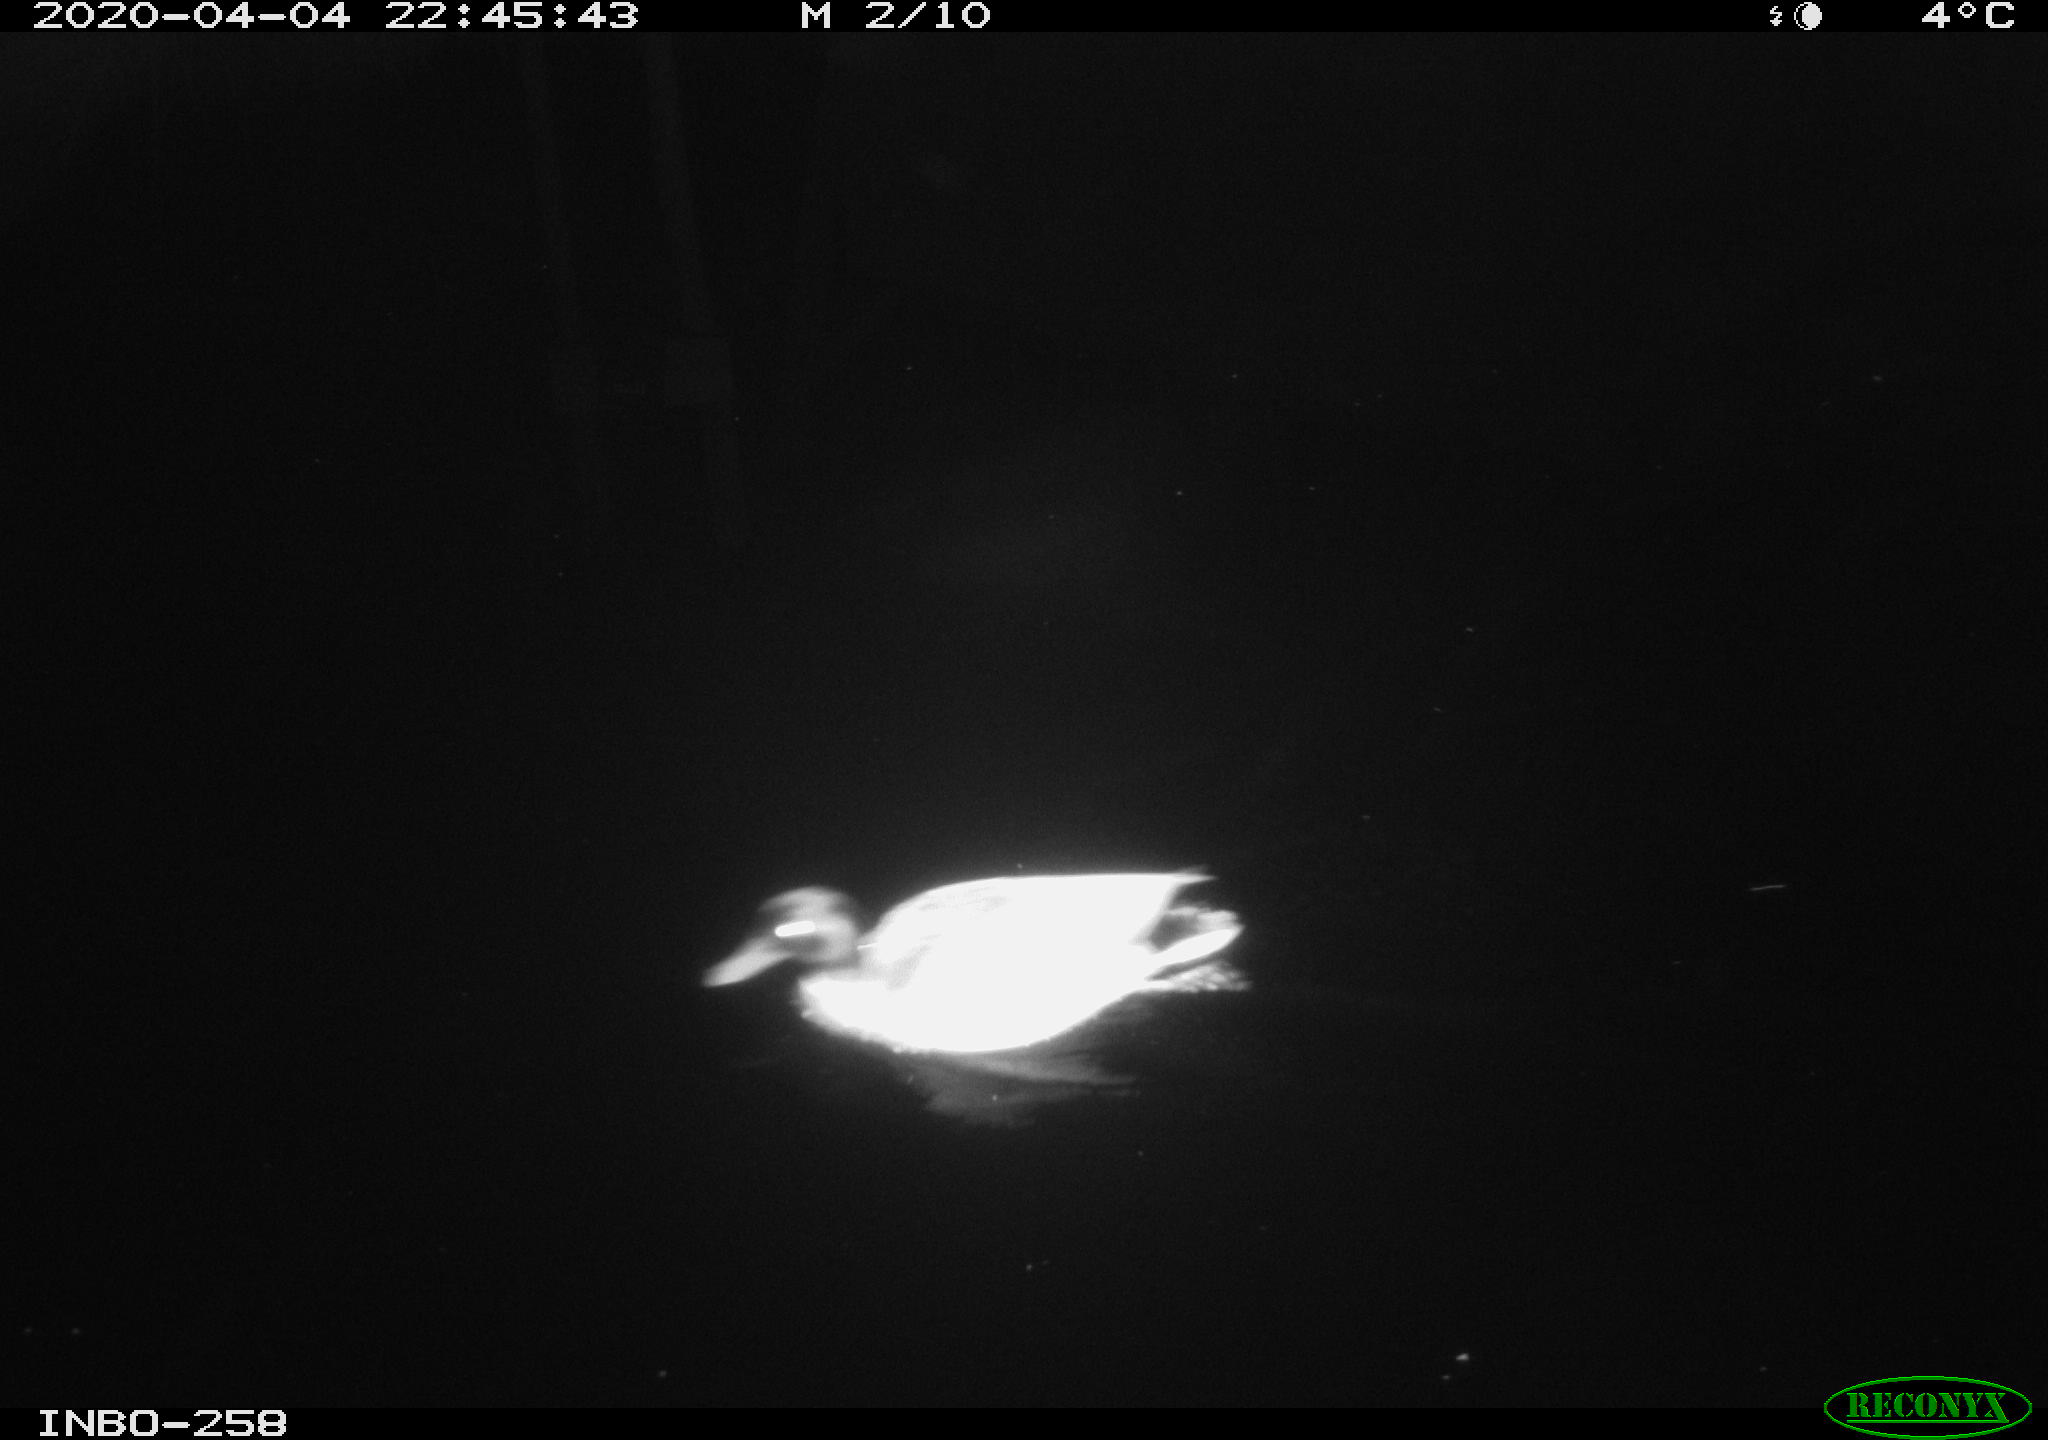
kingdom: Animalia
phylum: Chordata
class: Aves
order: Anseriformes
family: Anatidae
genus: Anas
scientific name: Anas platyrhynchos
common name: Mallard
